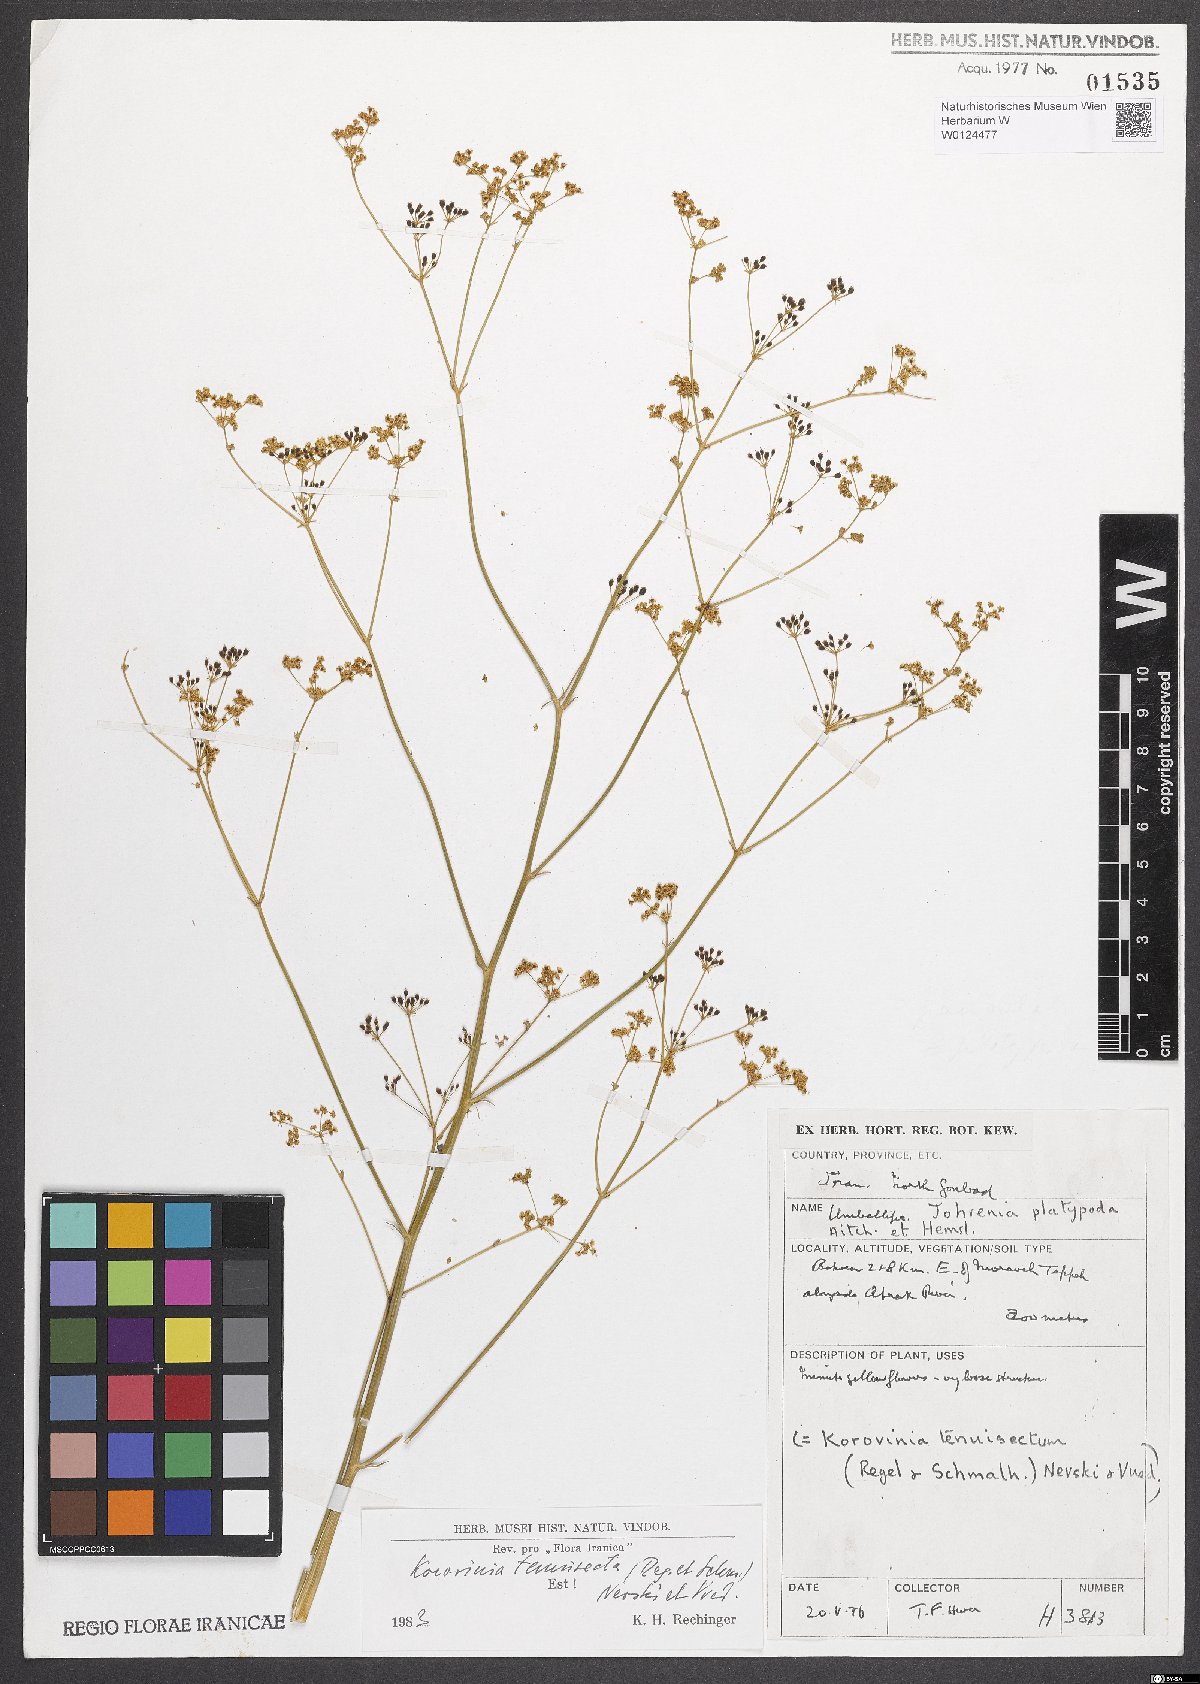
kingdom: Plantae
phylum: Tracheophyta
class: Magnoliopsida
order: Apiales
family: Apiaceae
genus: Galagania
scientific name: Galagania tenuisecta
